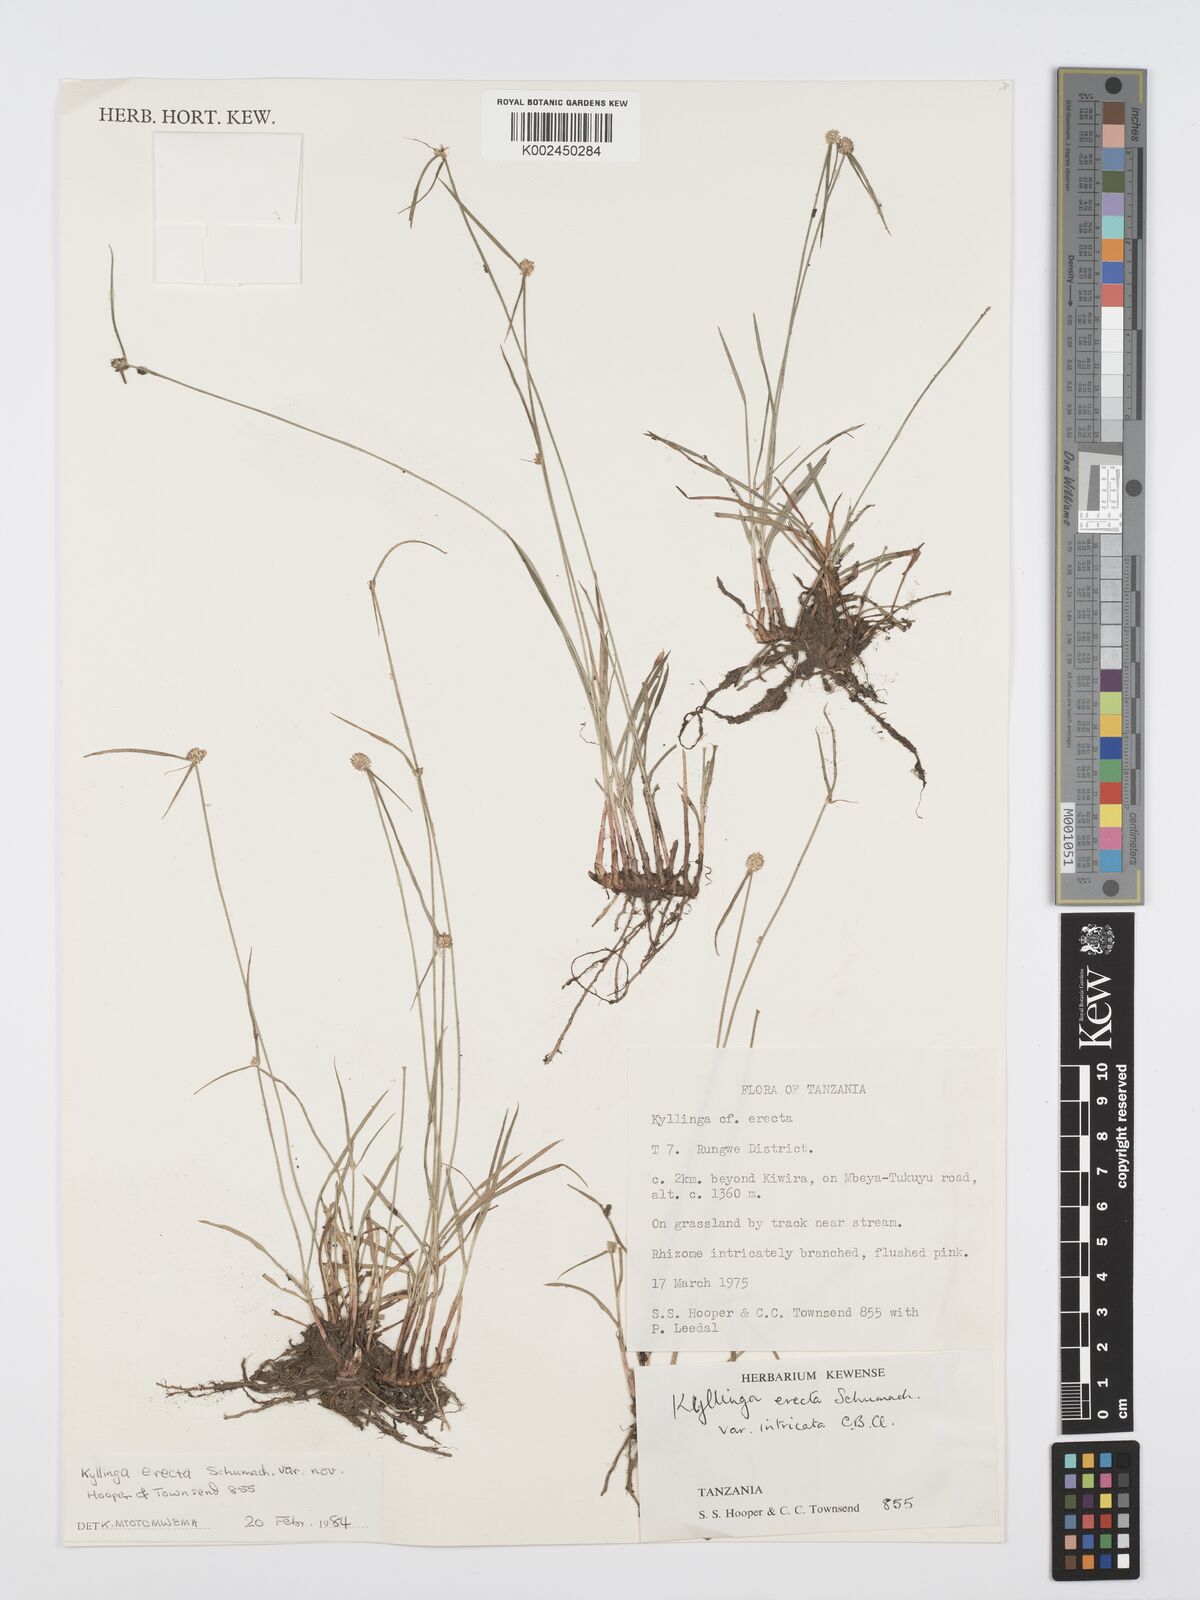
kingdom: Plantae
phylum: Tracheophyta
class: Liliopsida
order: Poales
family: Cyperaceae
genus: Cyperus
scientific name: Cyperus
